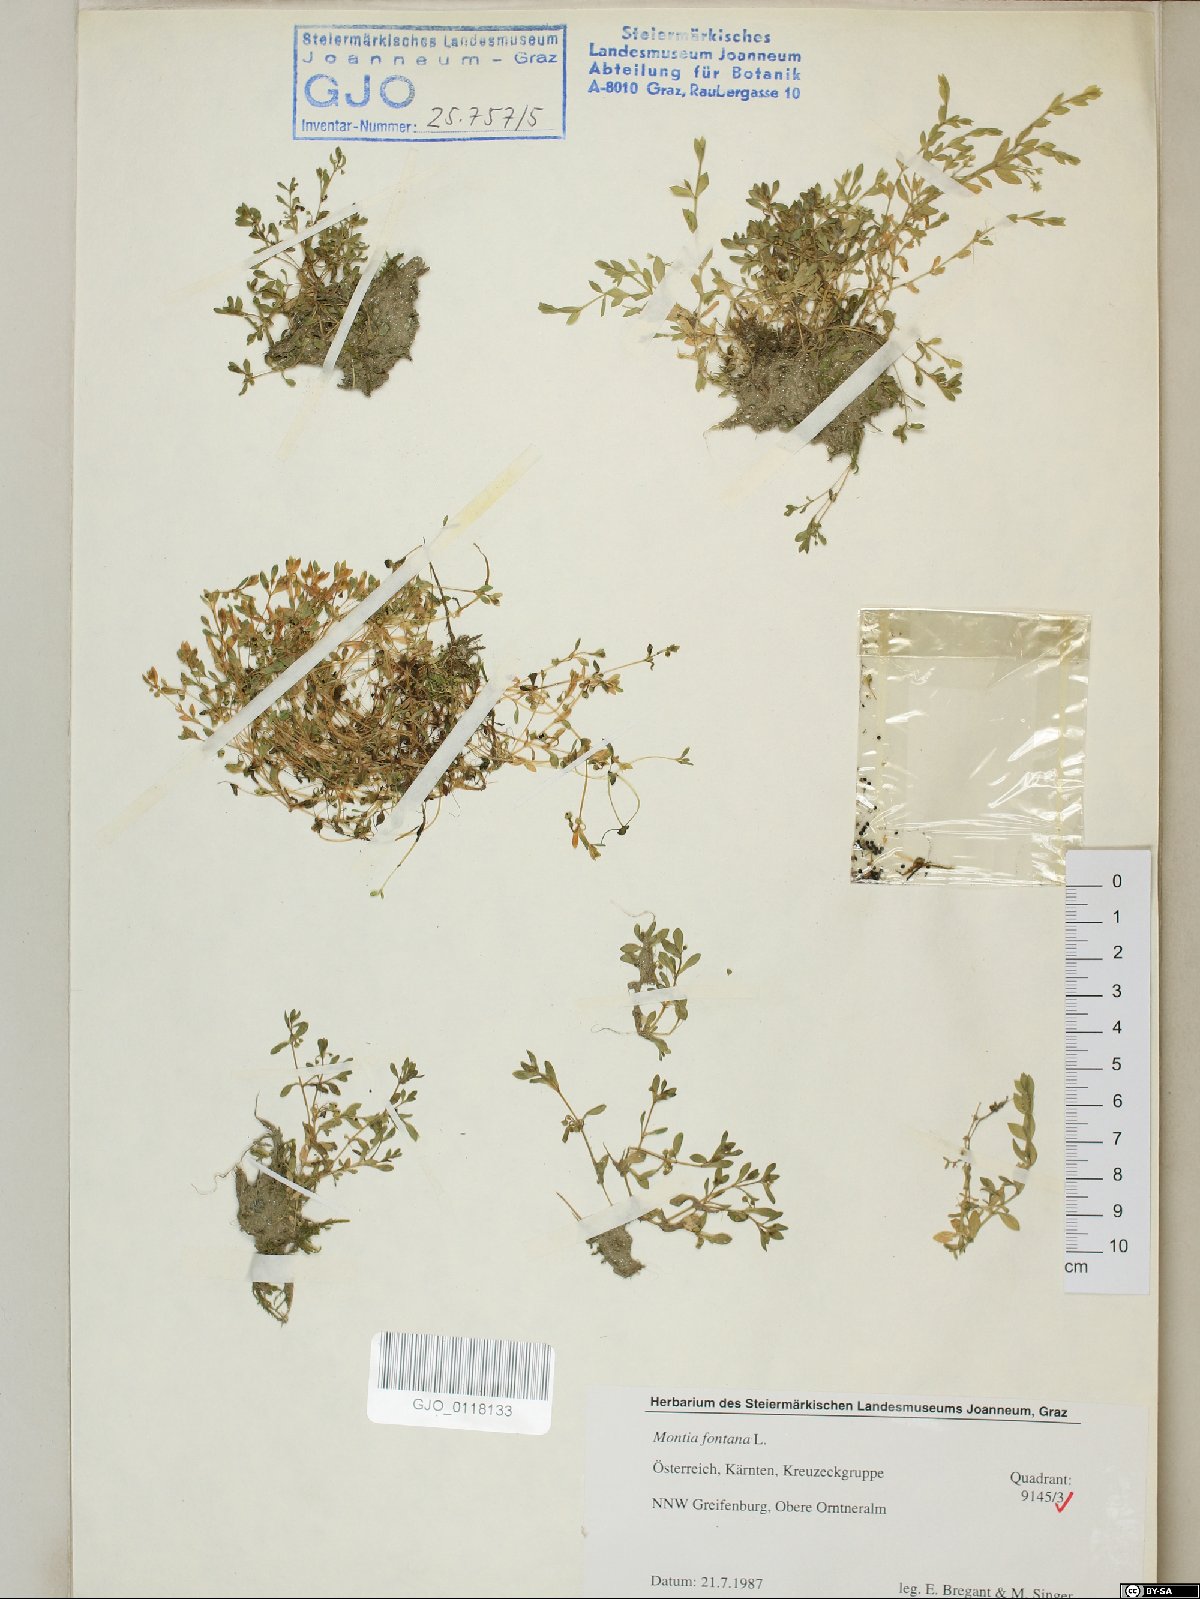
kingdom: Plantae
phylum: Tracheophyta
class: Magnoliopsida
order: Caryophyllales
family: Montiaceae
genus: Montia
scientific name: Montia fontana
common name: Blinks
